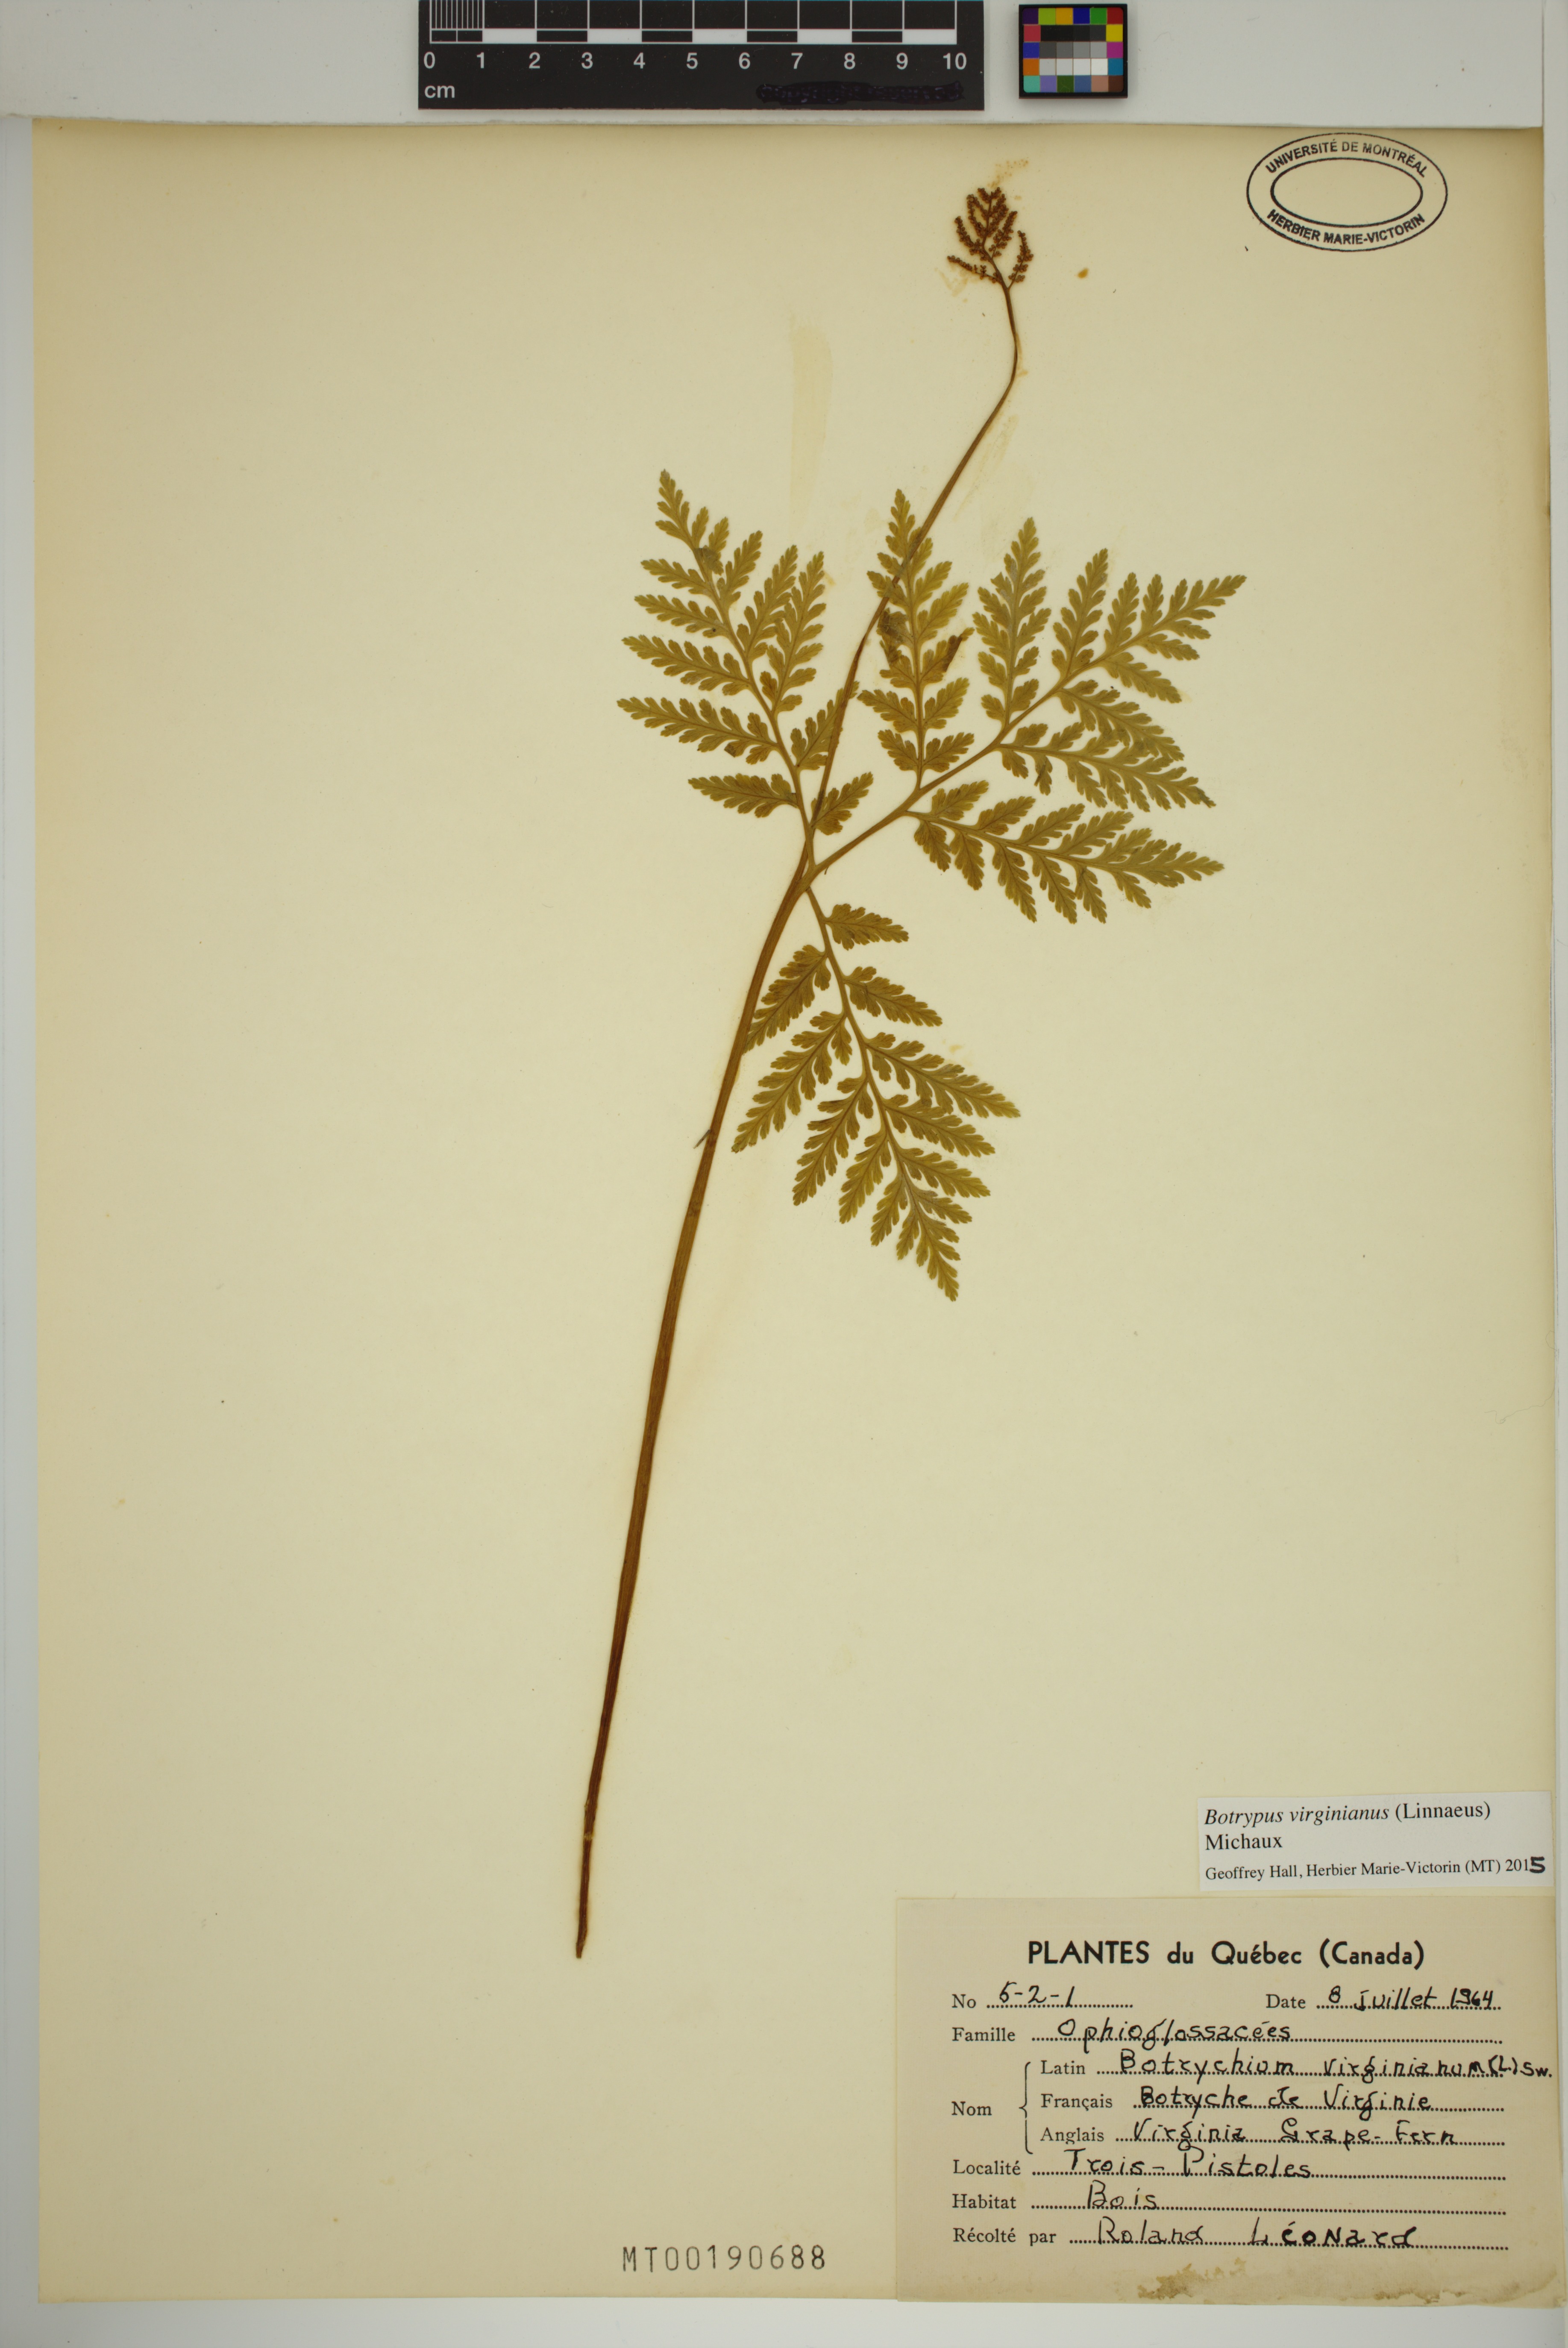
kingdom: Plantae
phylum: Tracheophyta
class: Polypodiopsida
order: Ophioglossales
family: Ophioglossaceae
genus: Botrypus
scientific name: Botrypus virginianus
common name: Common grapefern
